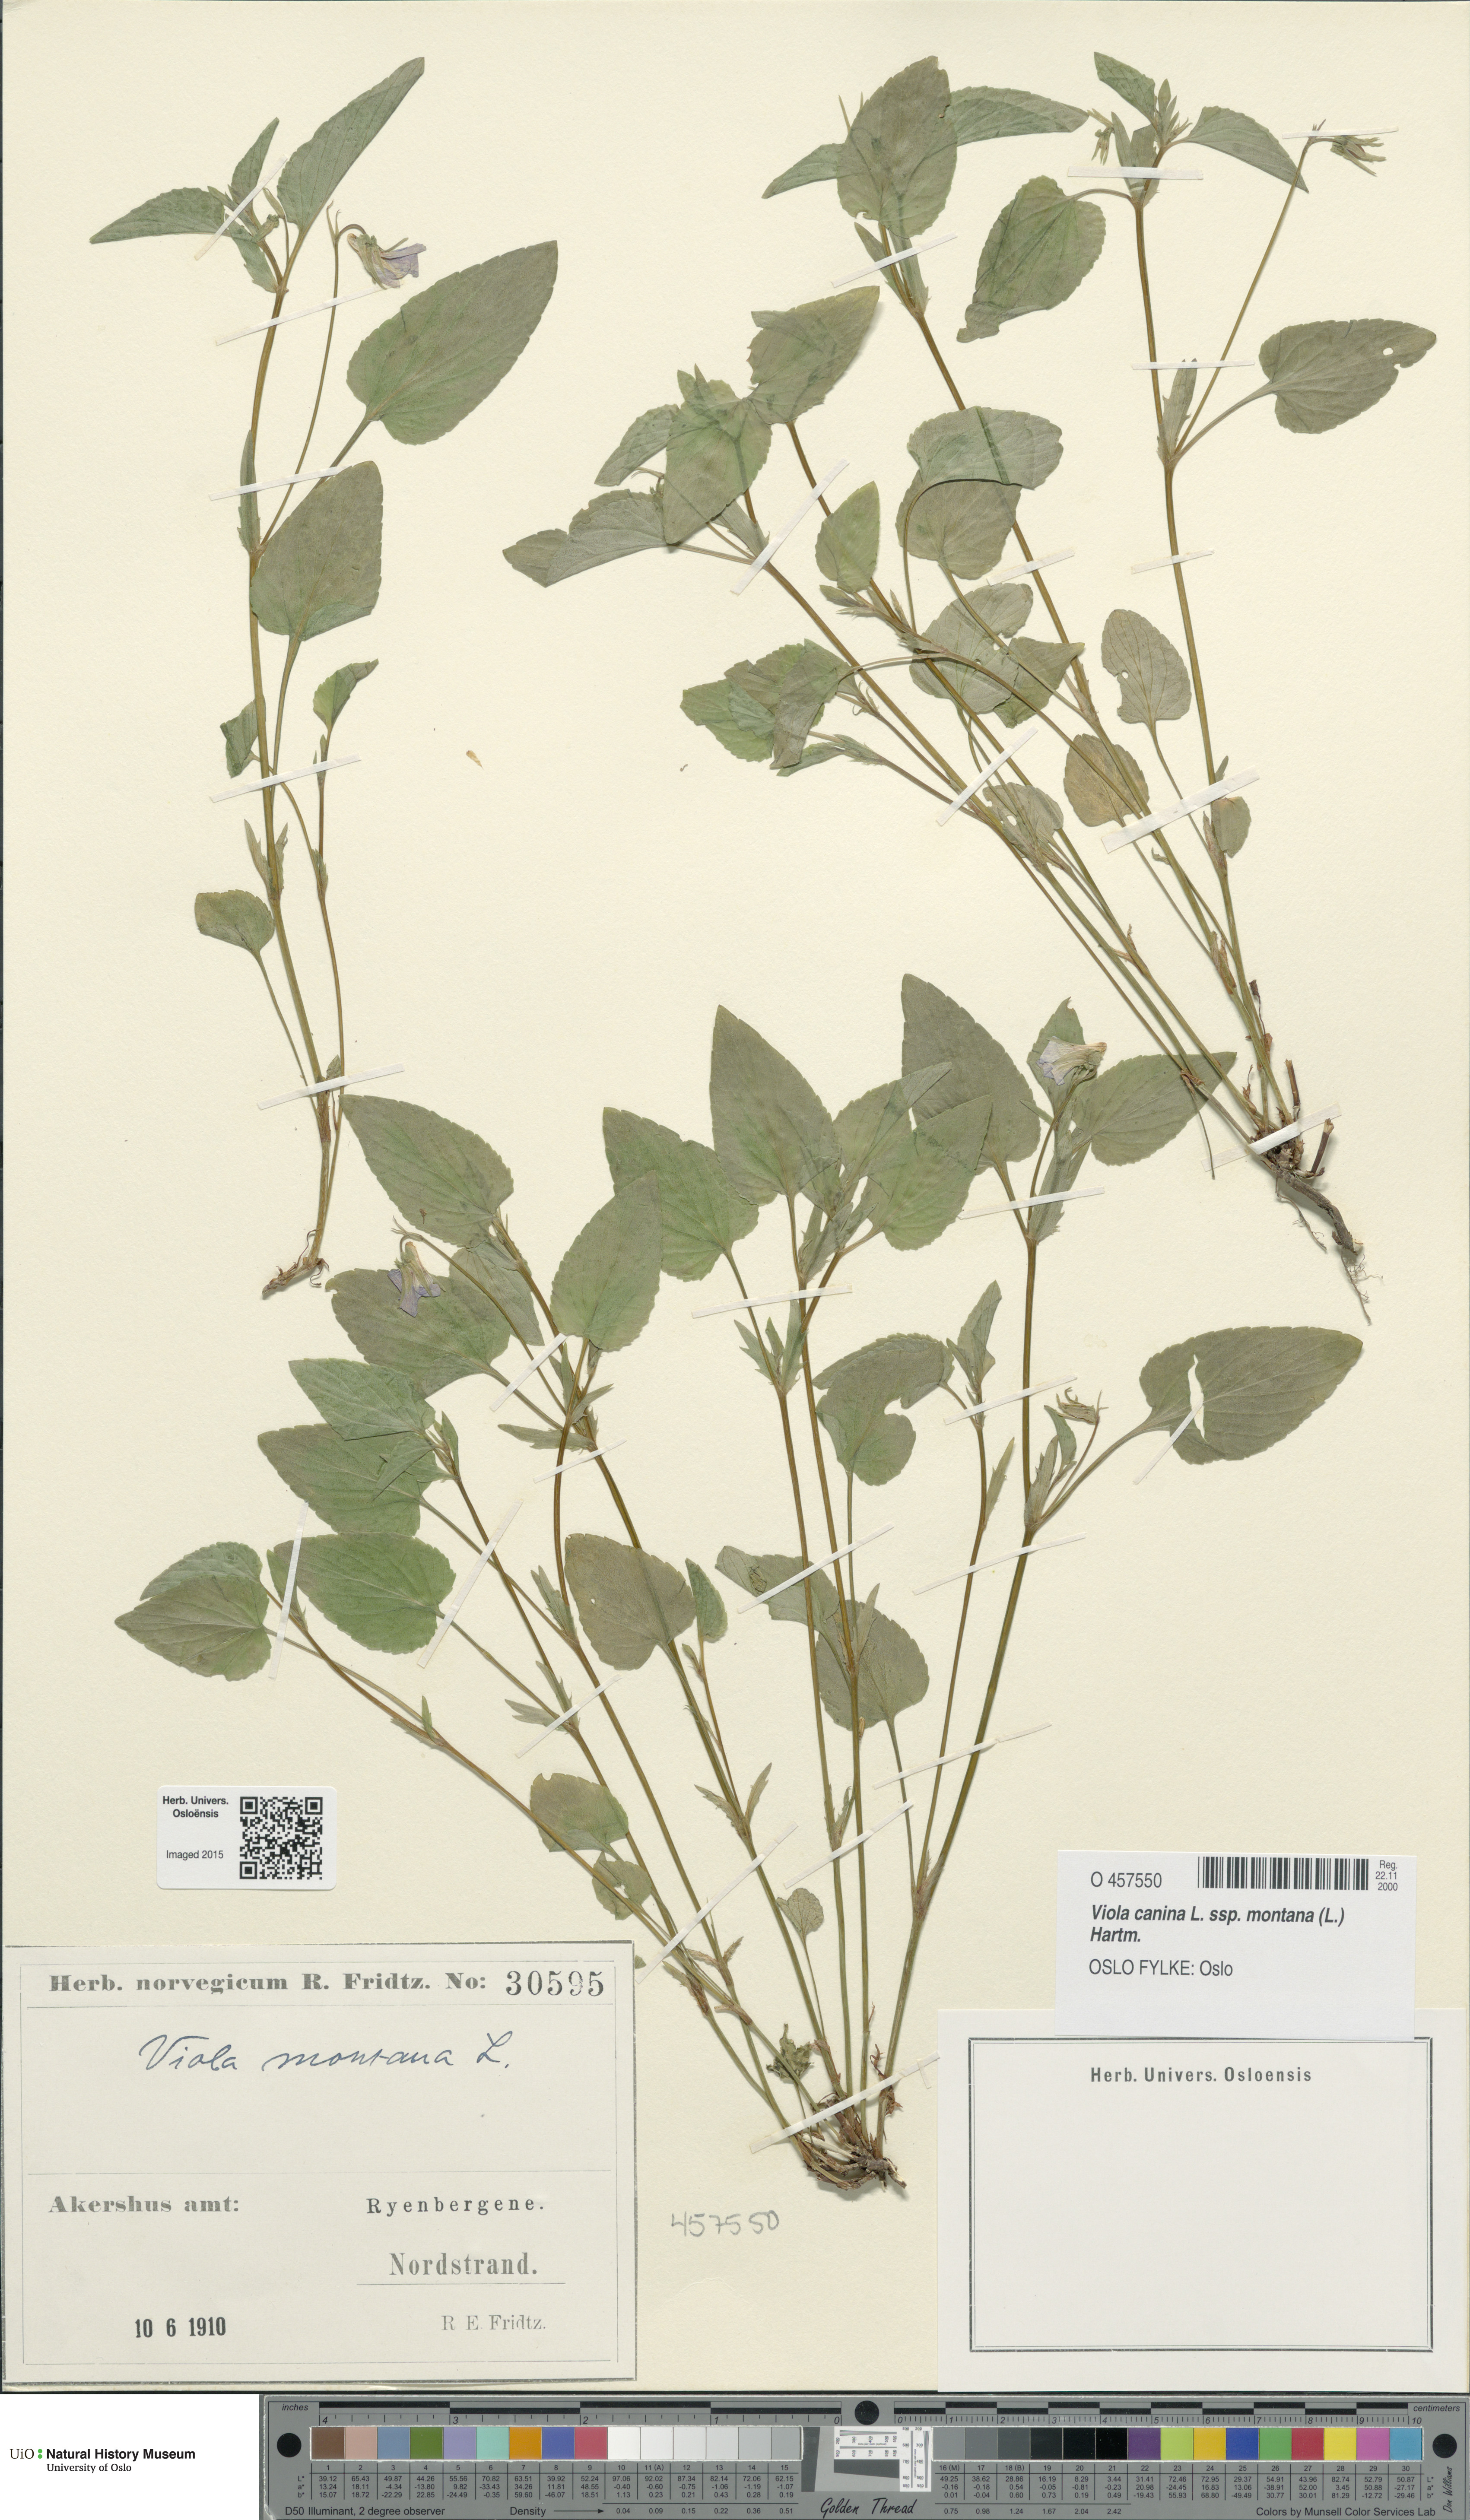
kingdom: Plantae
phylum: Tracheophyta
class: Magnoliopsida
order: Malpighiales
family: Violaceae
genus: Viola
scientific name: Viola ruppii
